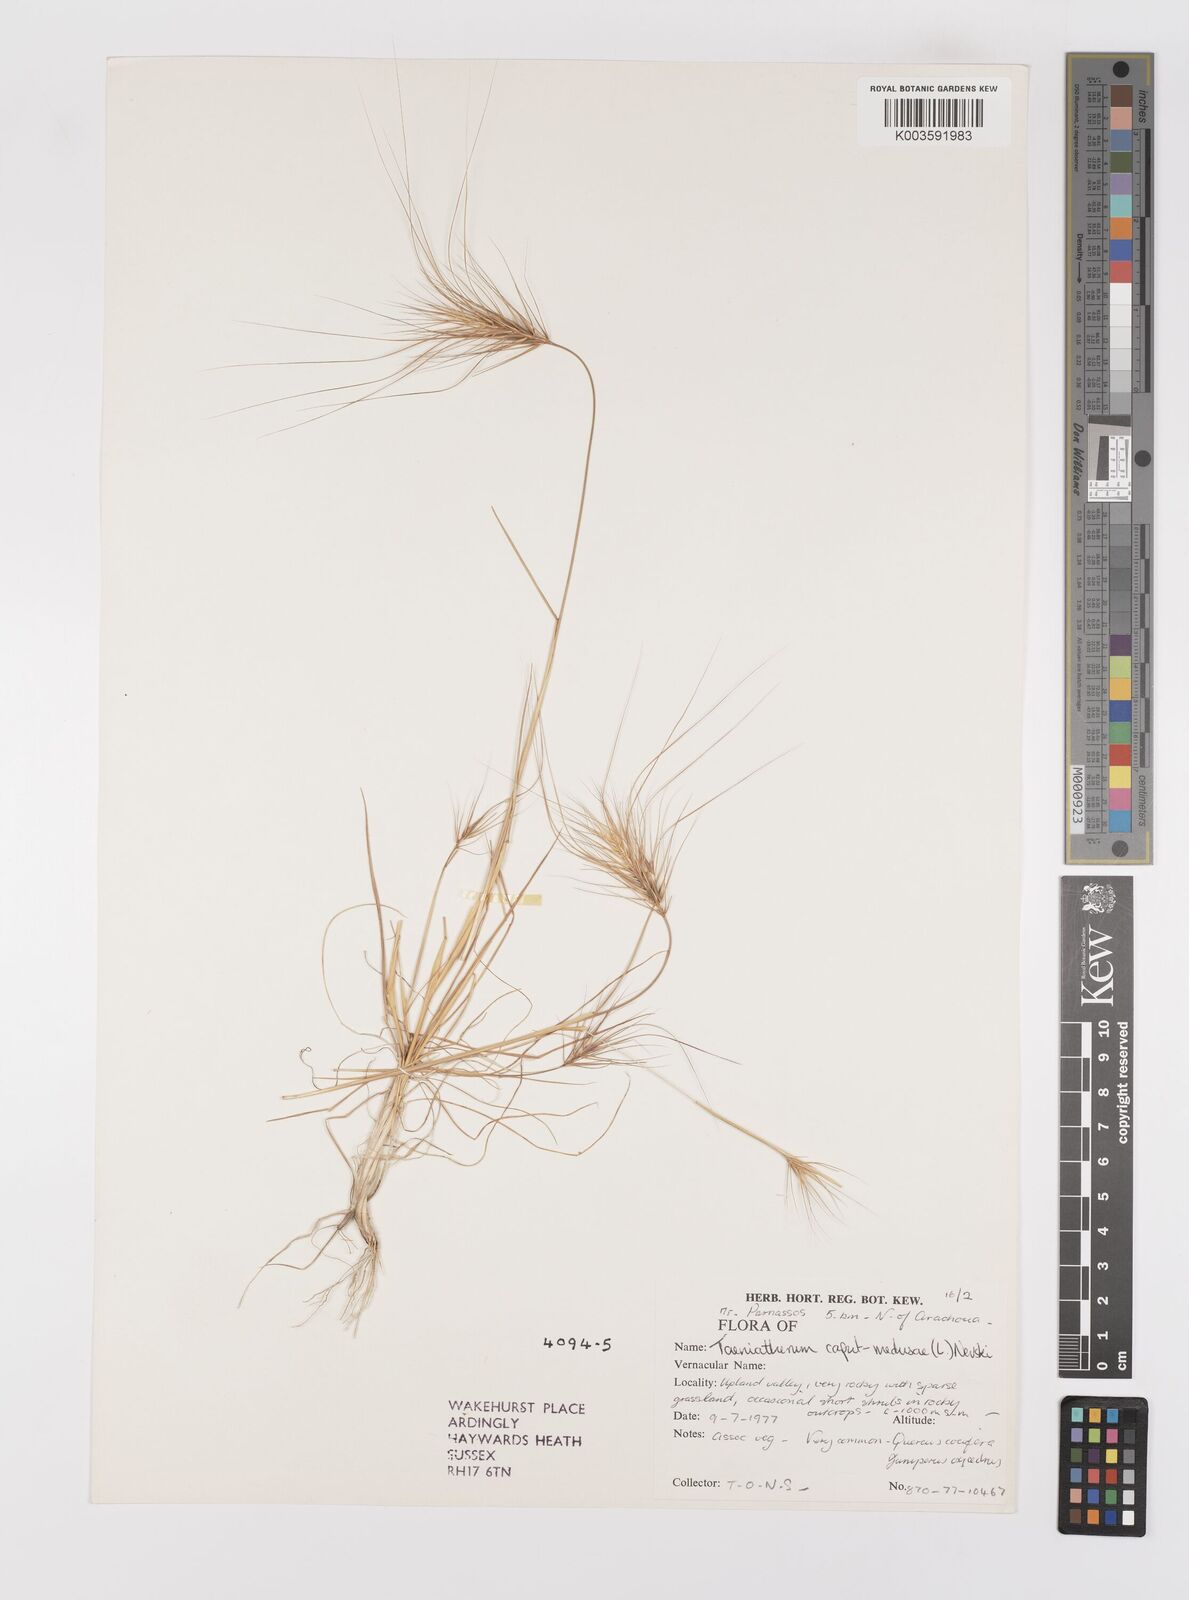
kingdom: Plantae
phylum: Tracheophyta
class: Liliopsida
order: Poales
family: Poaceae
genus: Taeniatherum
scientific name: Taeniatherum caput-medusae
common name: Medusahead
